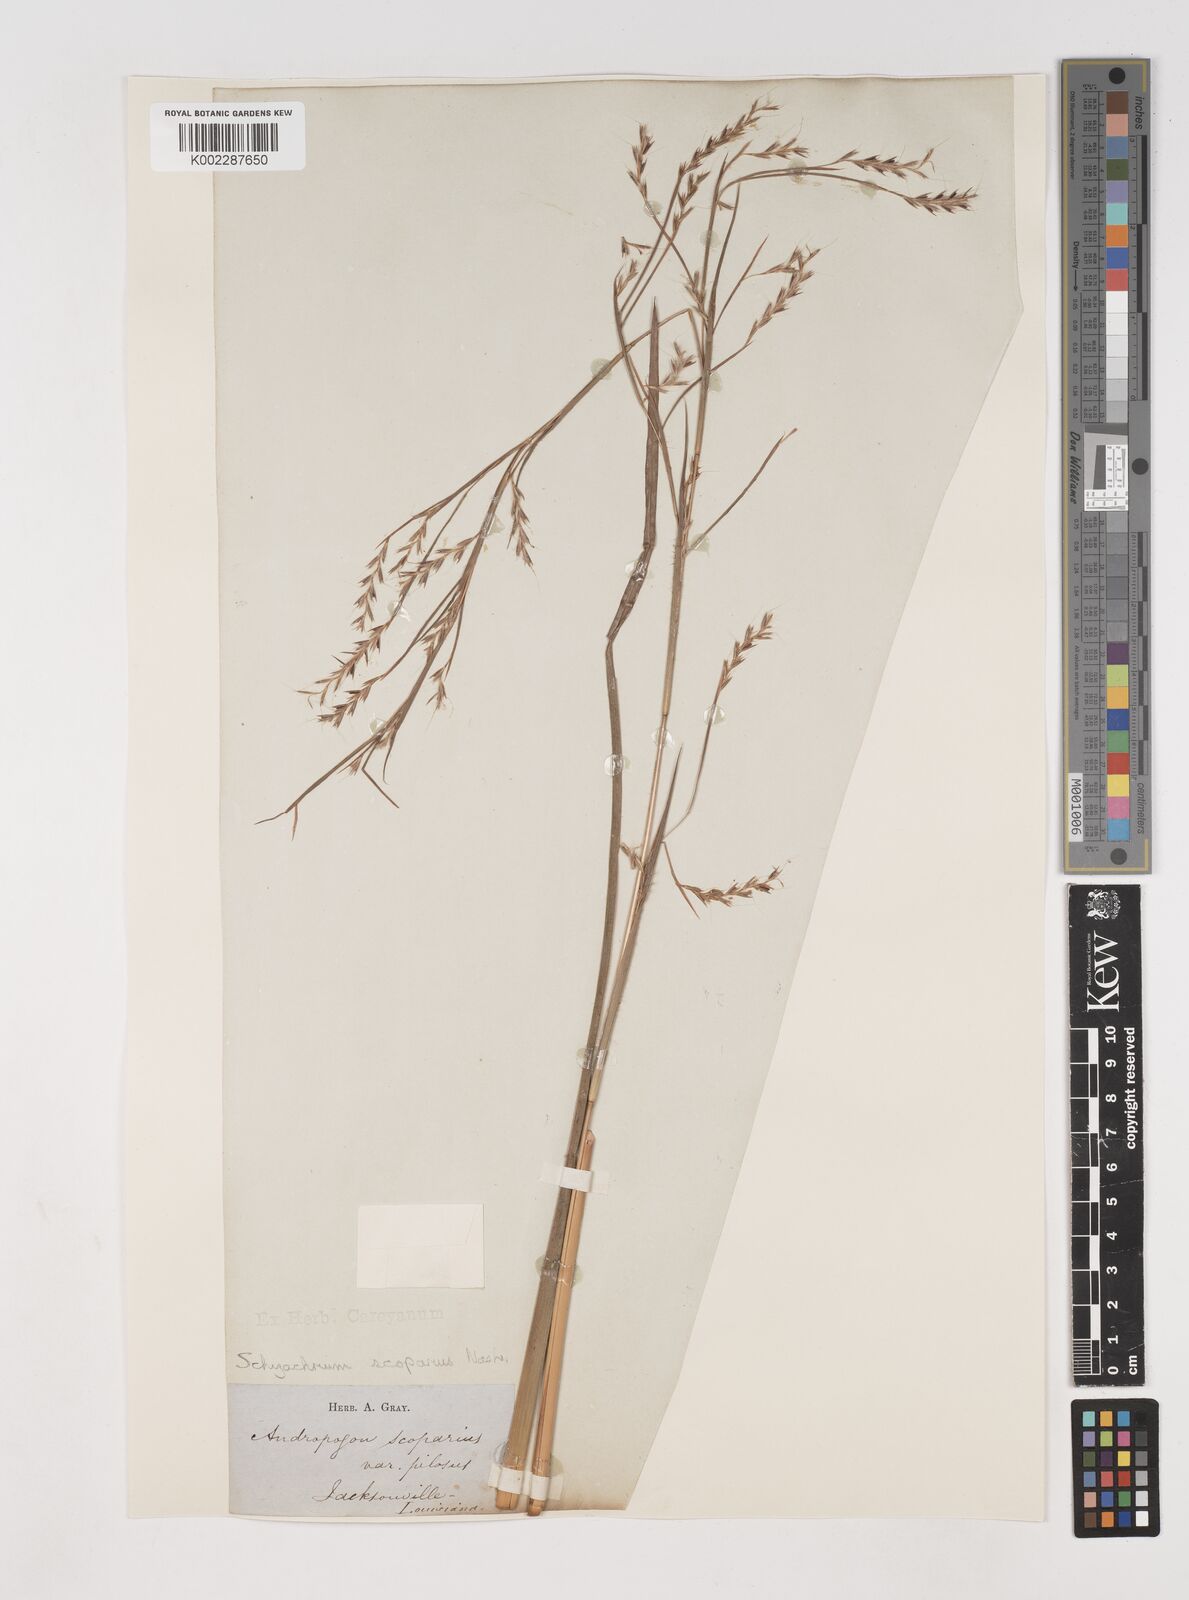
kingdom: Plantae
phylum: Tracheophyta
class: Liliopsida
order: Poales
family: Poaceae
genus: Schizachyrium
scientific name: Schizachyrium scoparium
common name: Little bluestem
